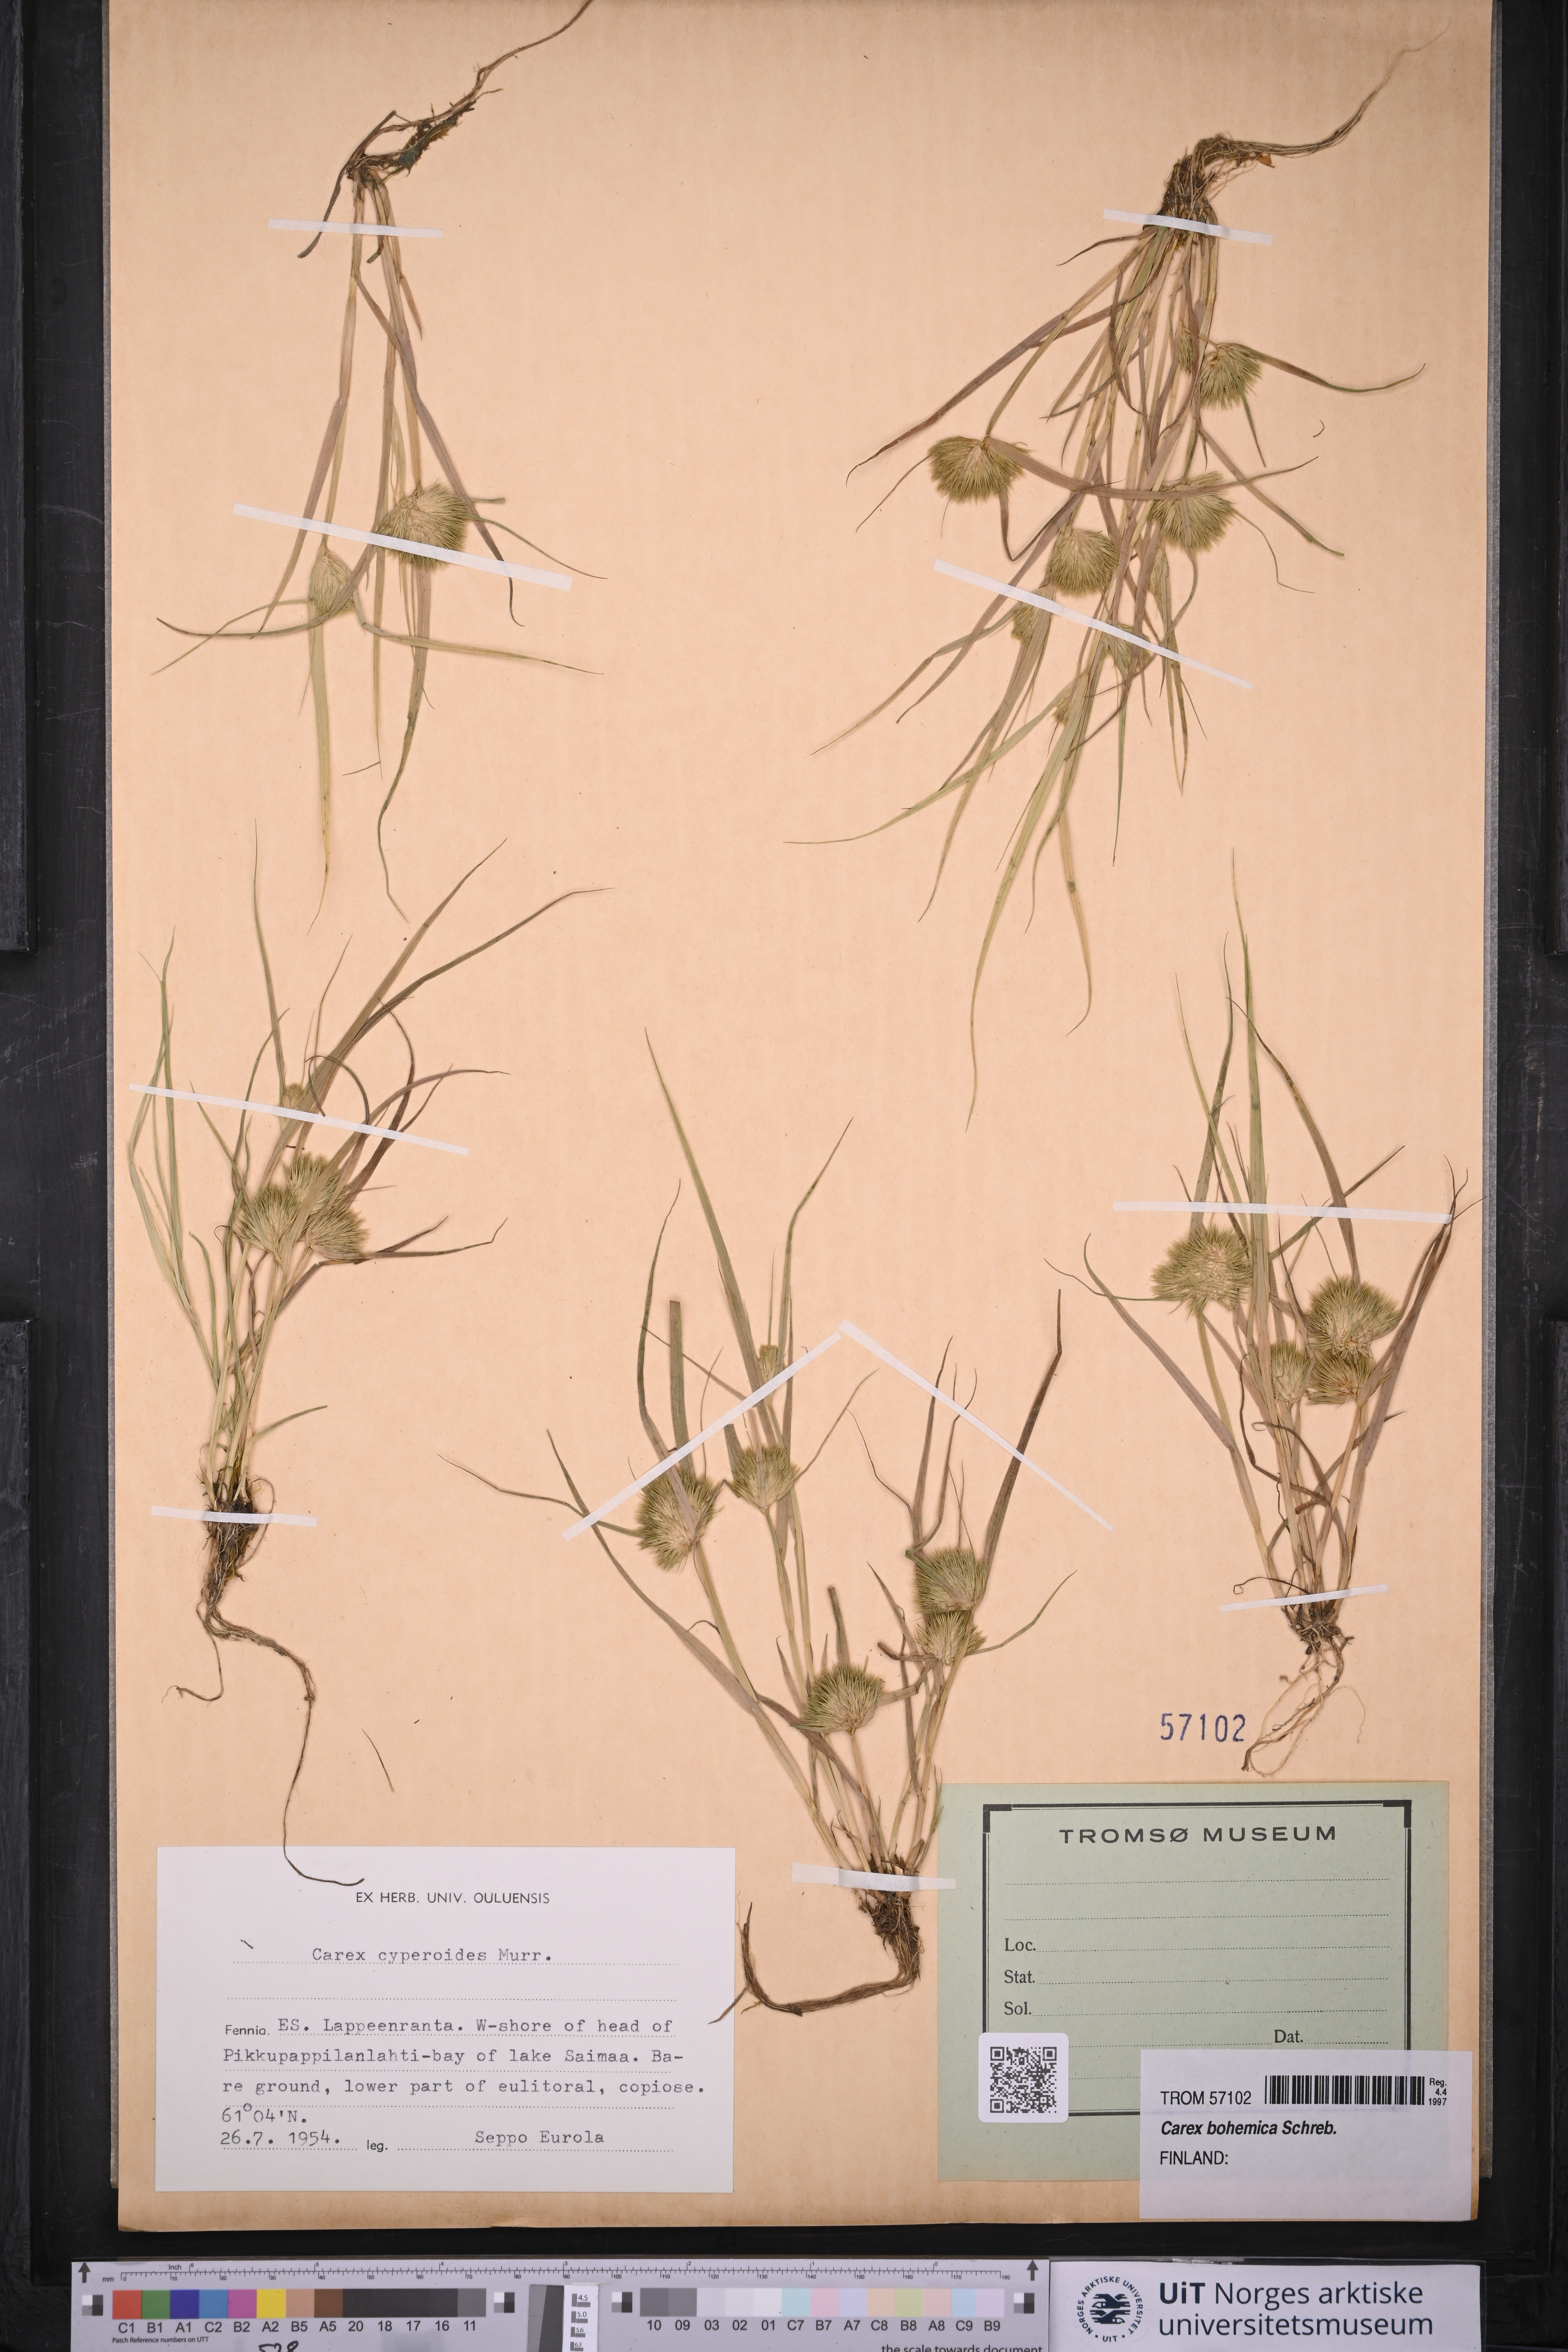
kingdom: Plantae
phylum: Tracheophyta
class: Liliopsida
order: Poales
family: Cyperaceae
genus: Carex
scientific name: Carex bohemica
